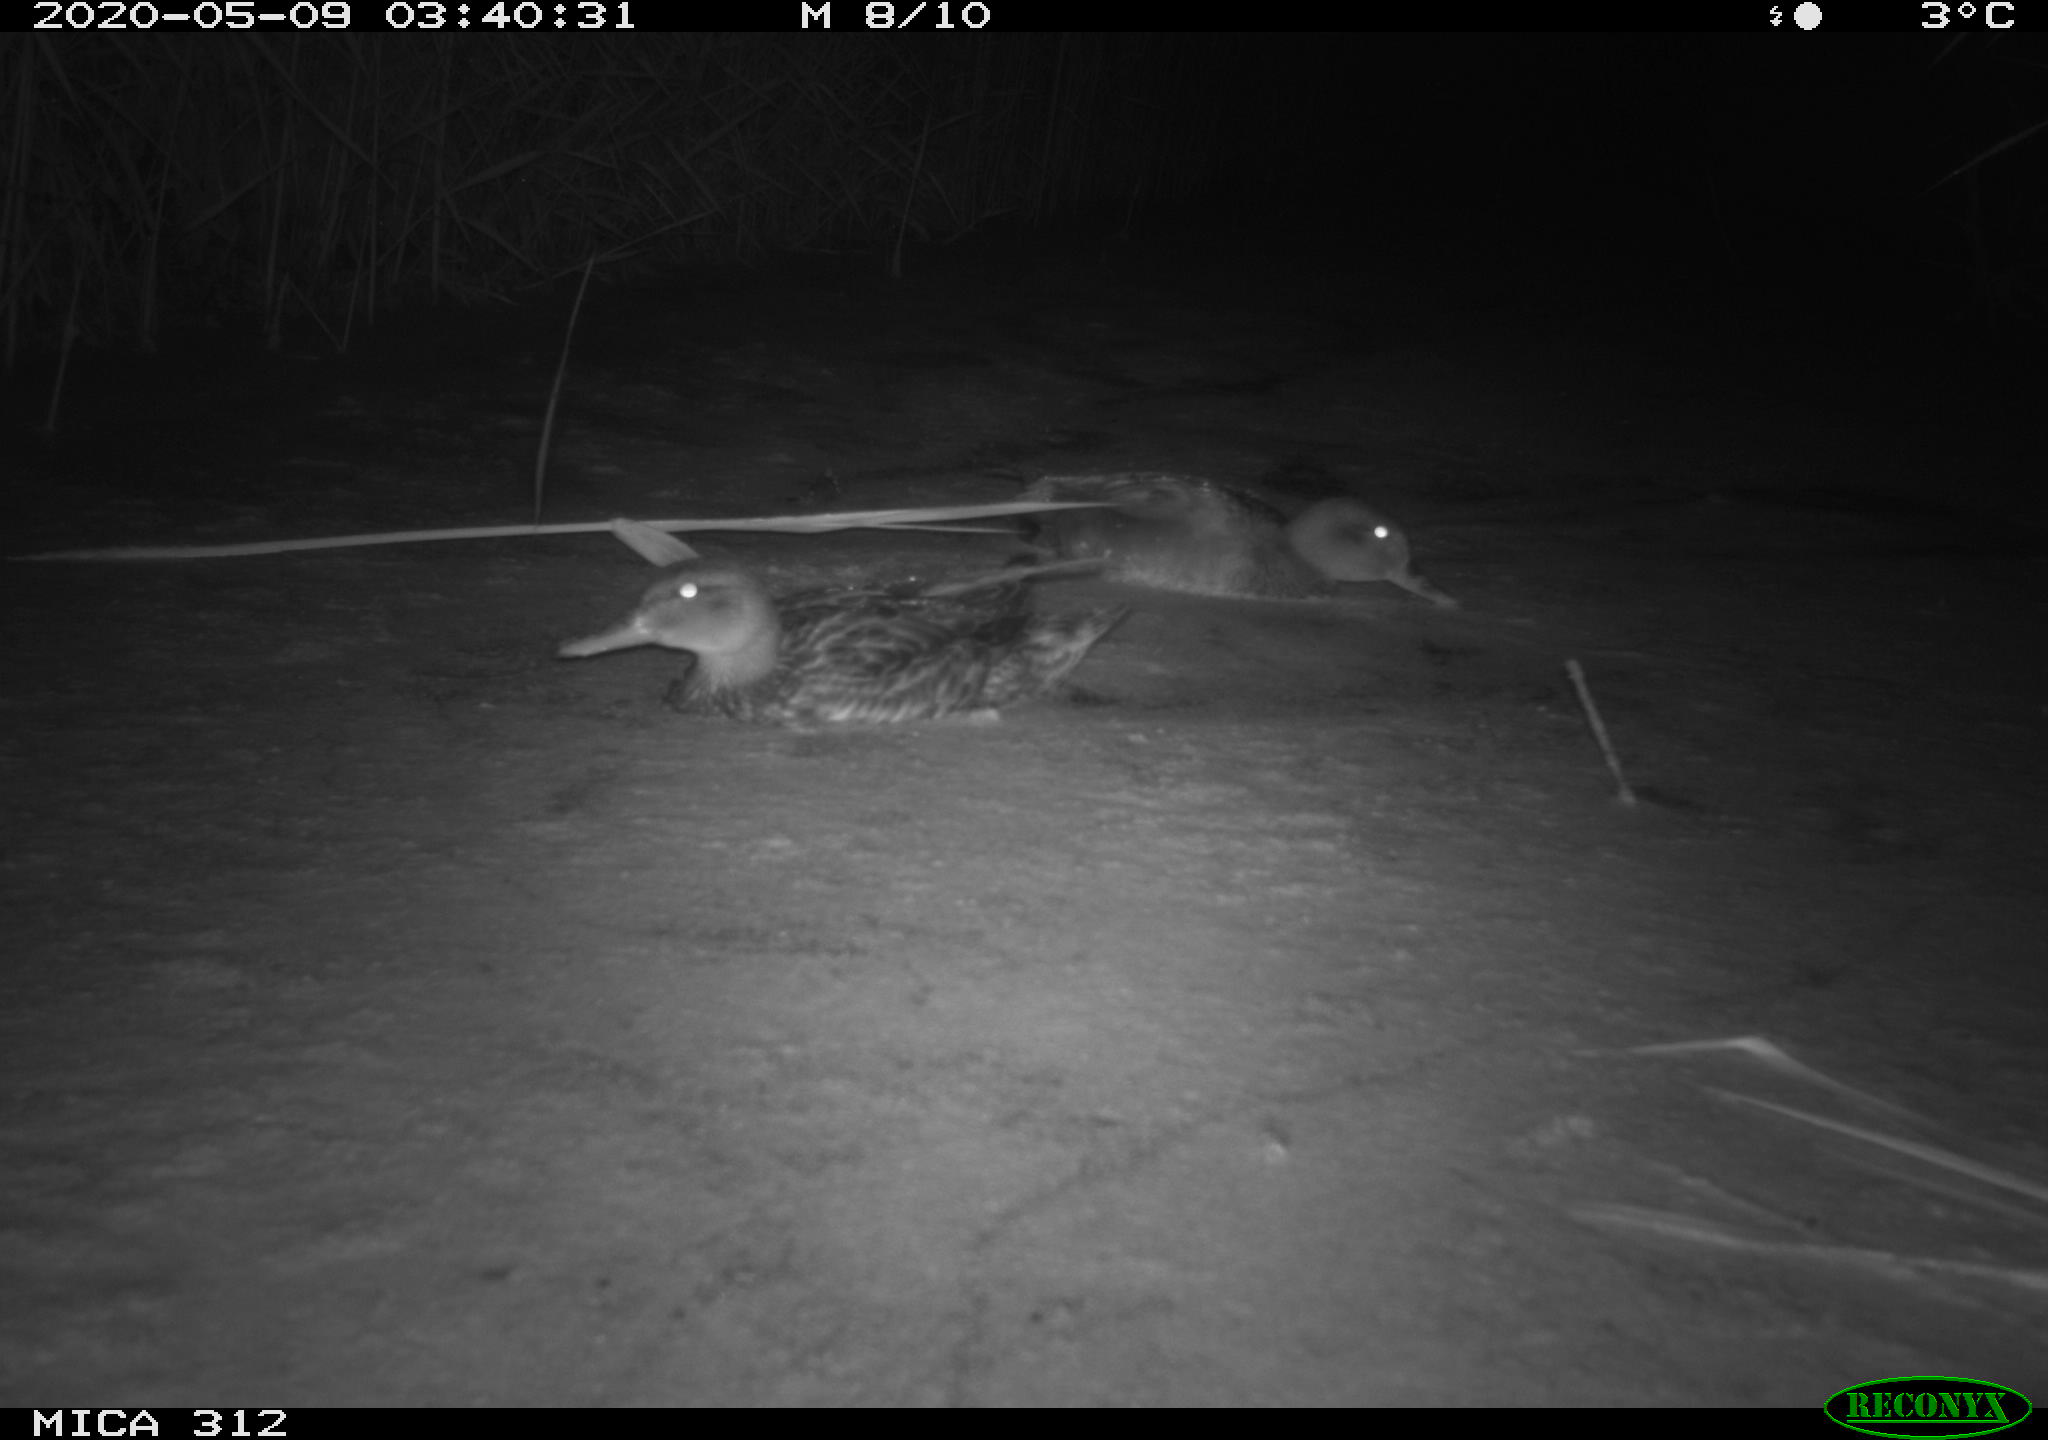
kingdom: Animalia
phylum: Chordata
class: Aves
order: Anseriformes
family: Anatidae
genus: Anas
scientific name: Anas platyrhynchos
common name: Mallard
